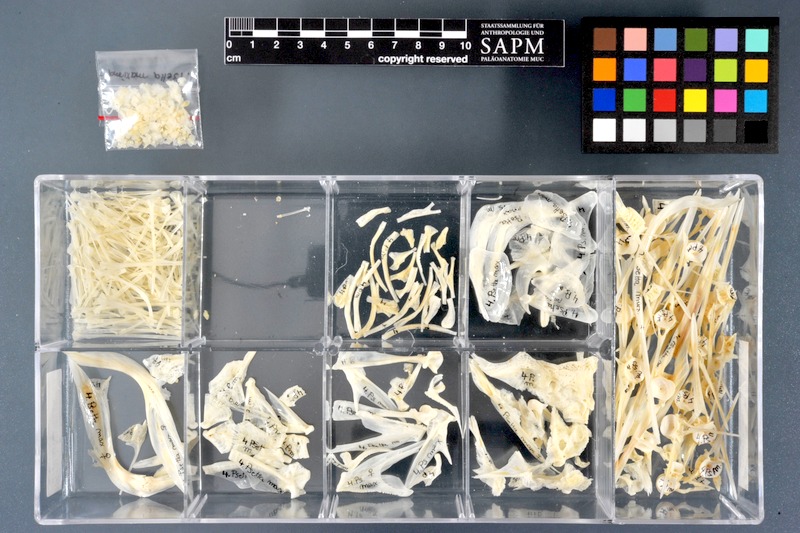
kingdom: Animalia
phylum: Chordata
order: Pleuronectiformes
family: Scophthalmidae
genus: Scophthalmus
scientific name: Scophthalmus maximus
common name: Turbot
